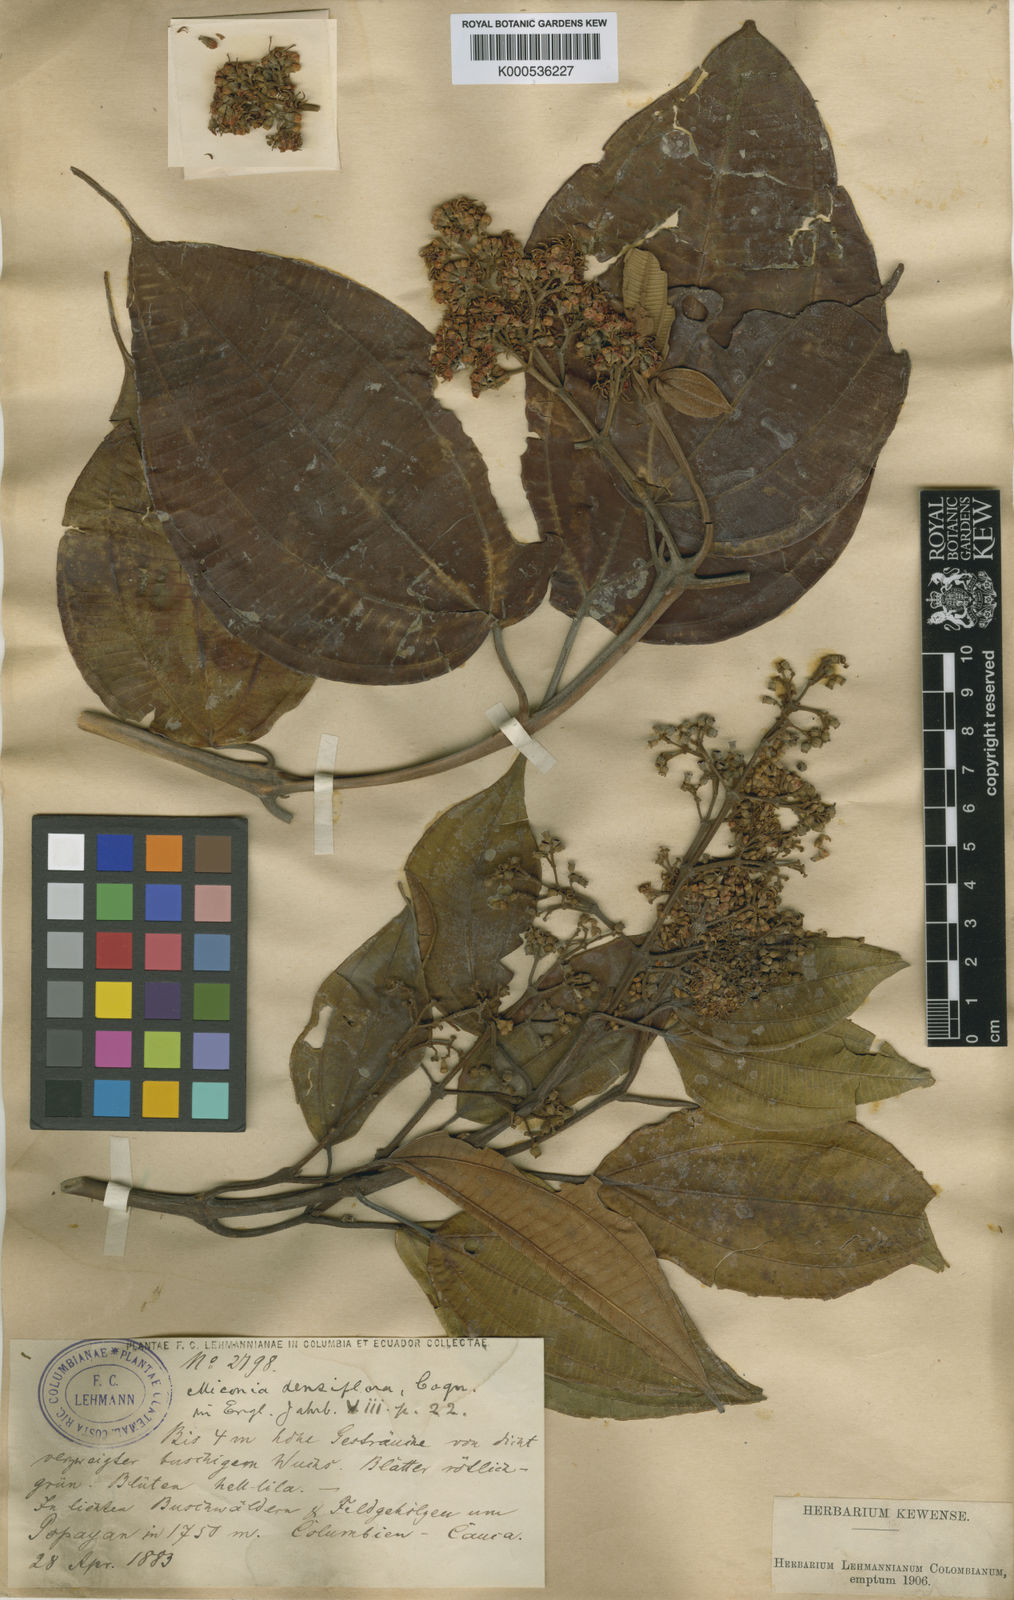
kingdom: Plantae
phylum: Tracheophyta
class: Magnoliopsida
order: Myrtales
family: Melastomataceae
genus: Miconia
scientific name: Miconia caudata
